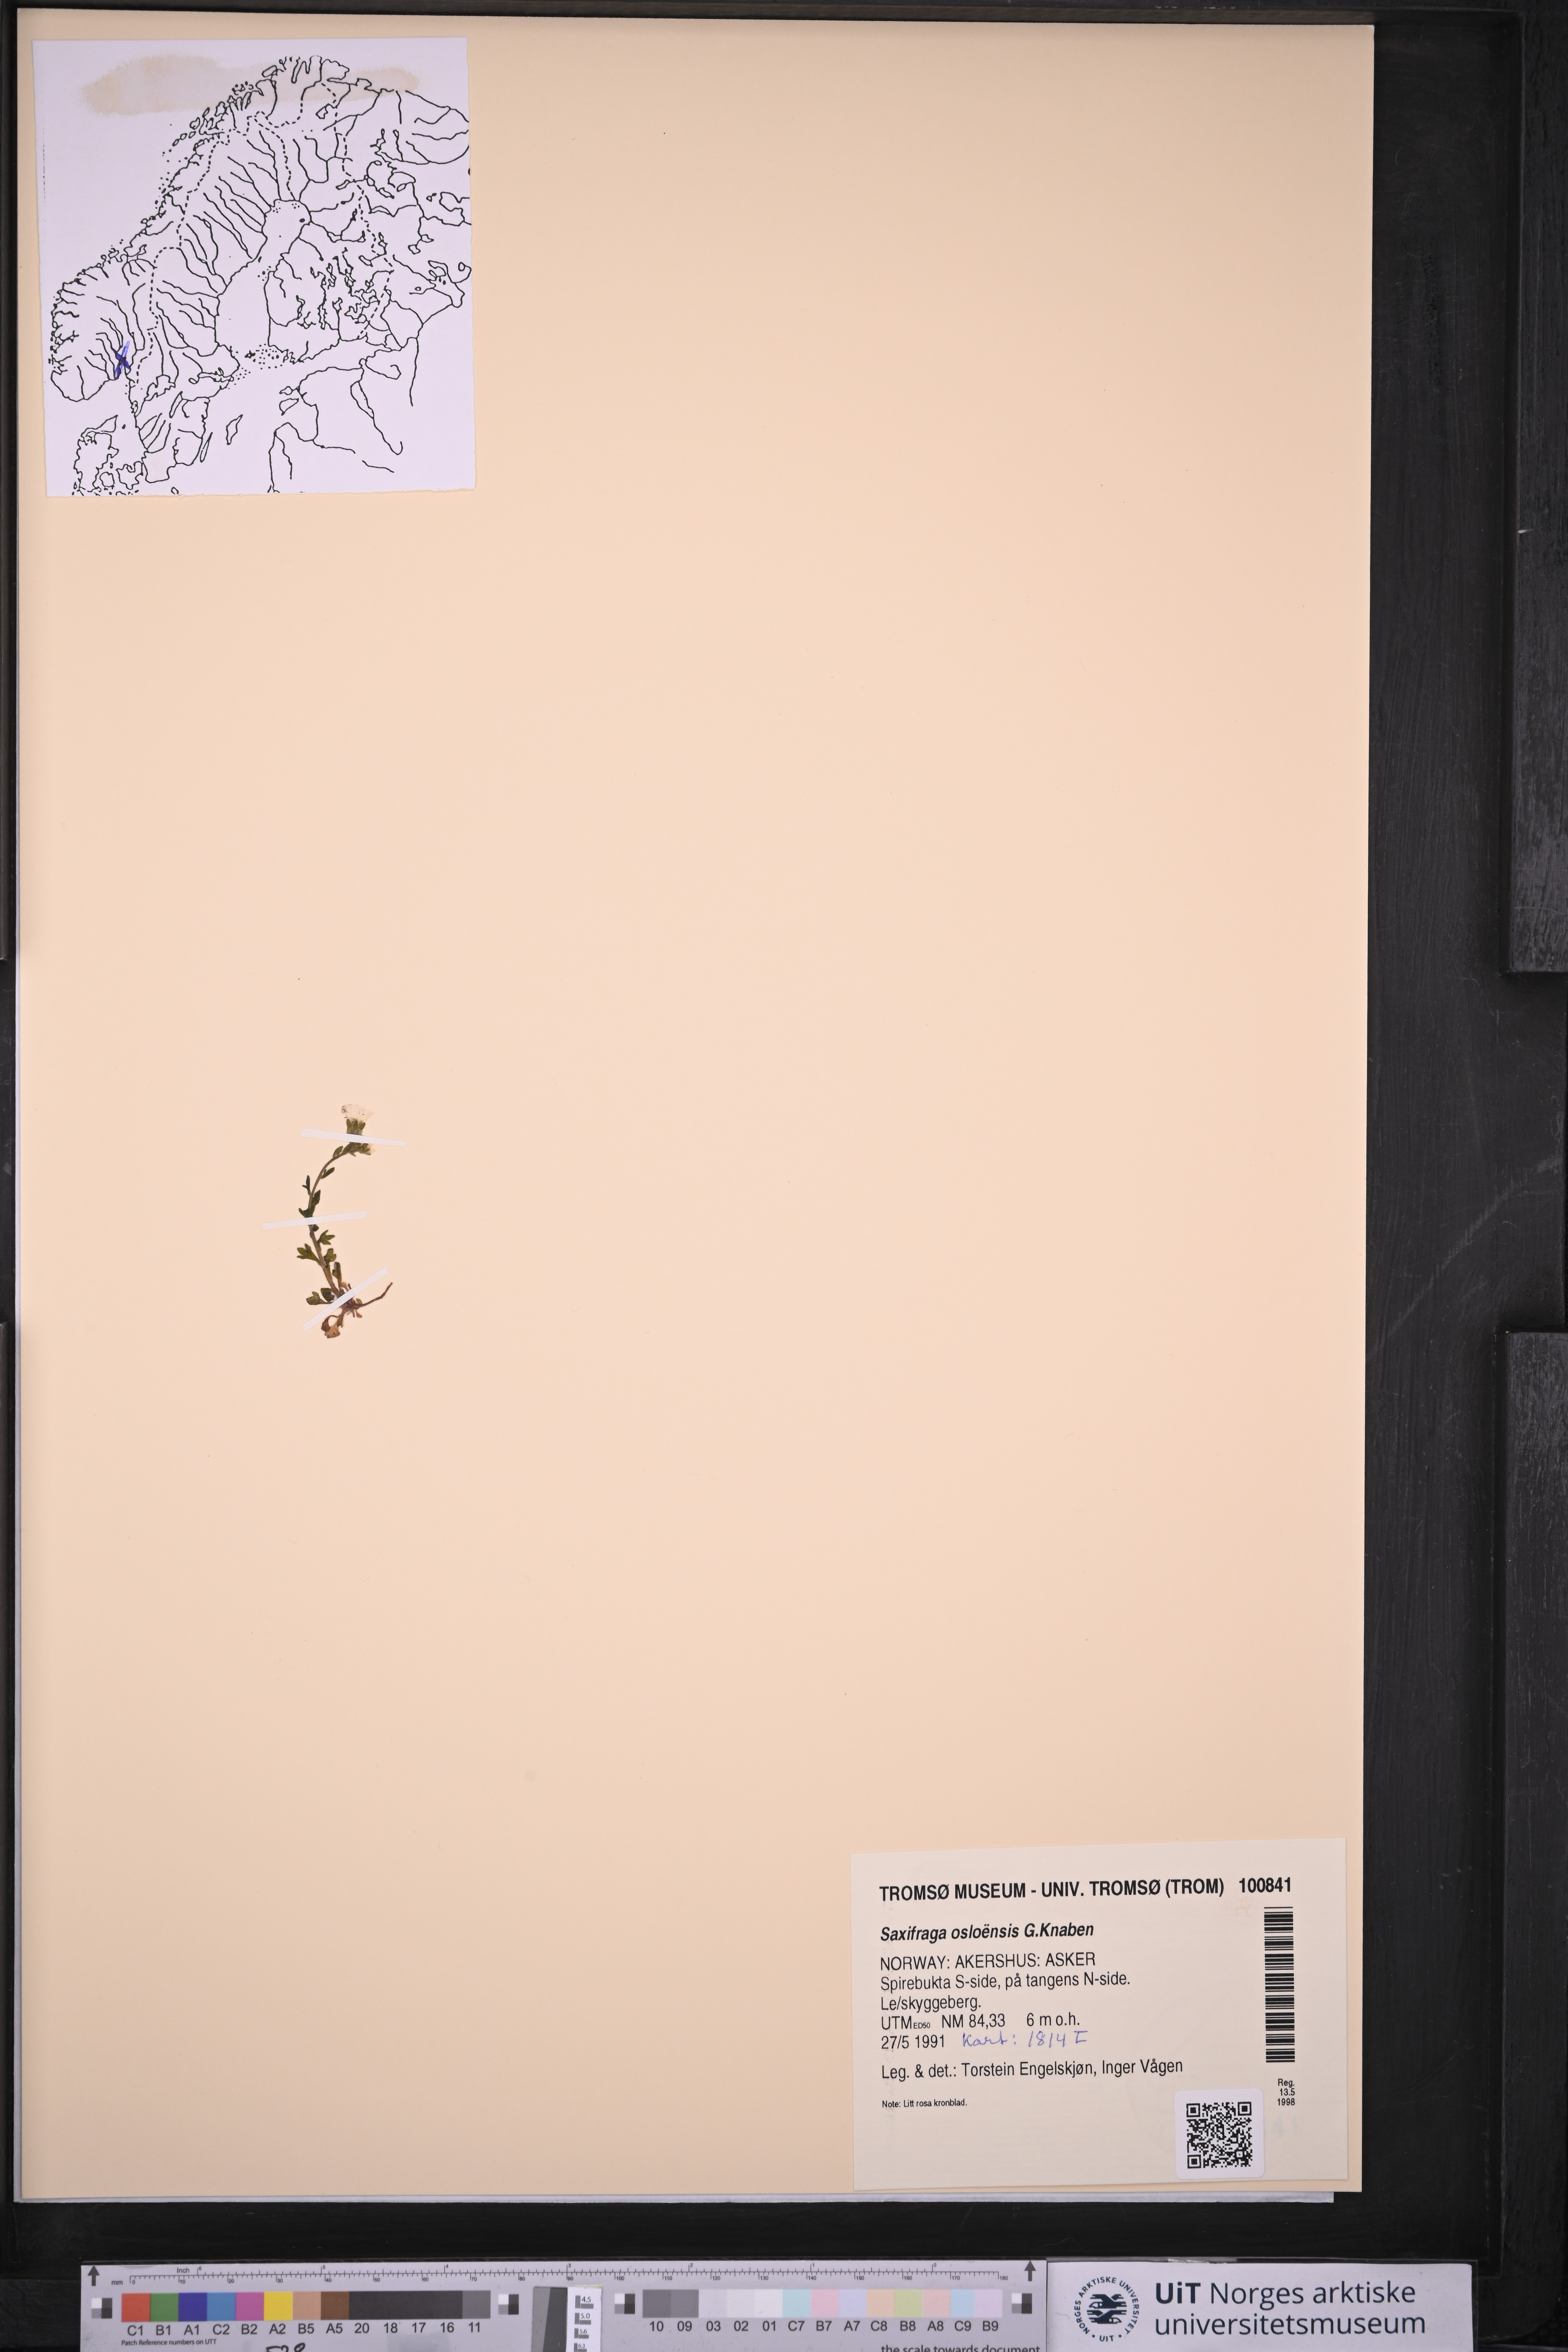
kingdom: Plantae
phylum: Tracheophyta
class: Magnoliopsida
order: Saxifragales
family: Saxifragaceae
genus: Saxifraga
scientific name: Saxifraga osloensis
